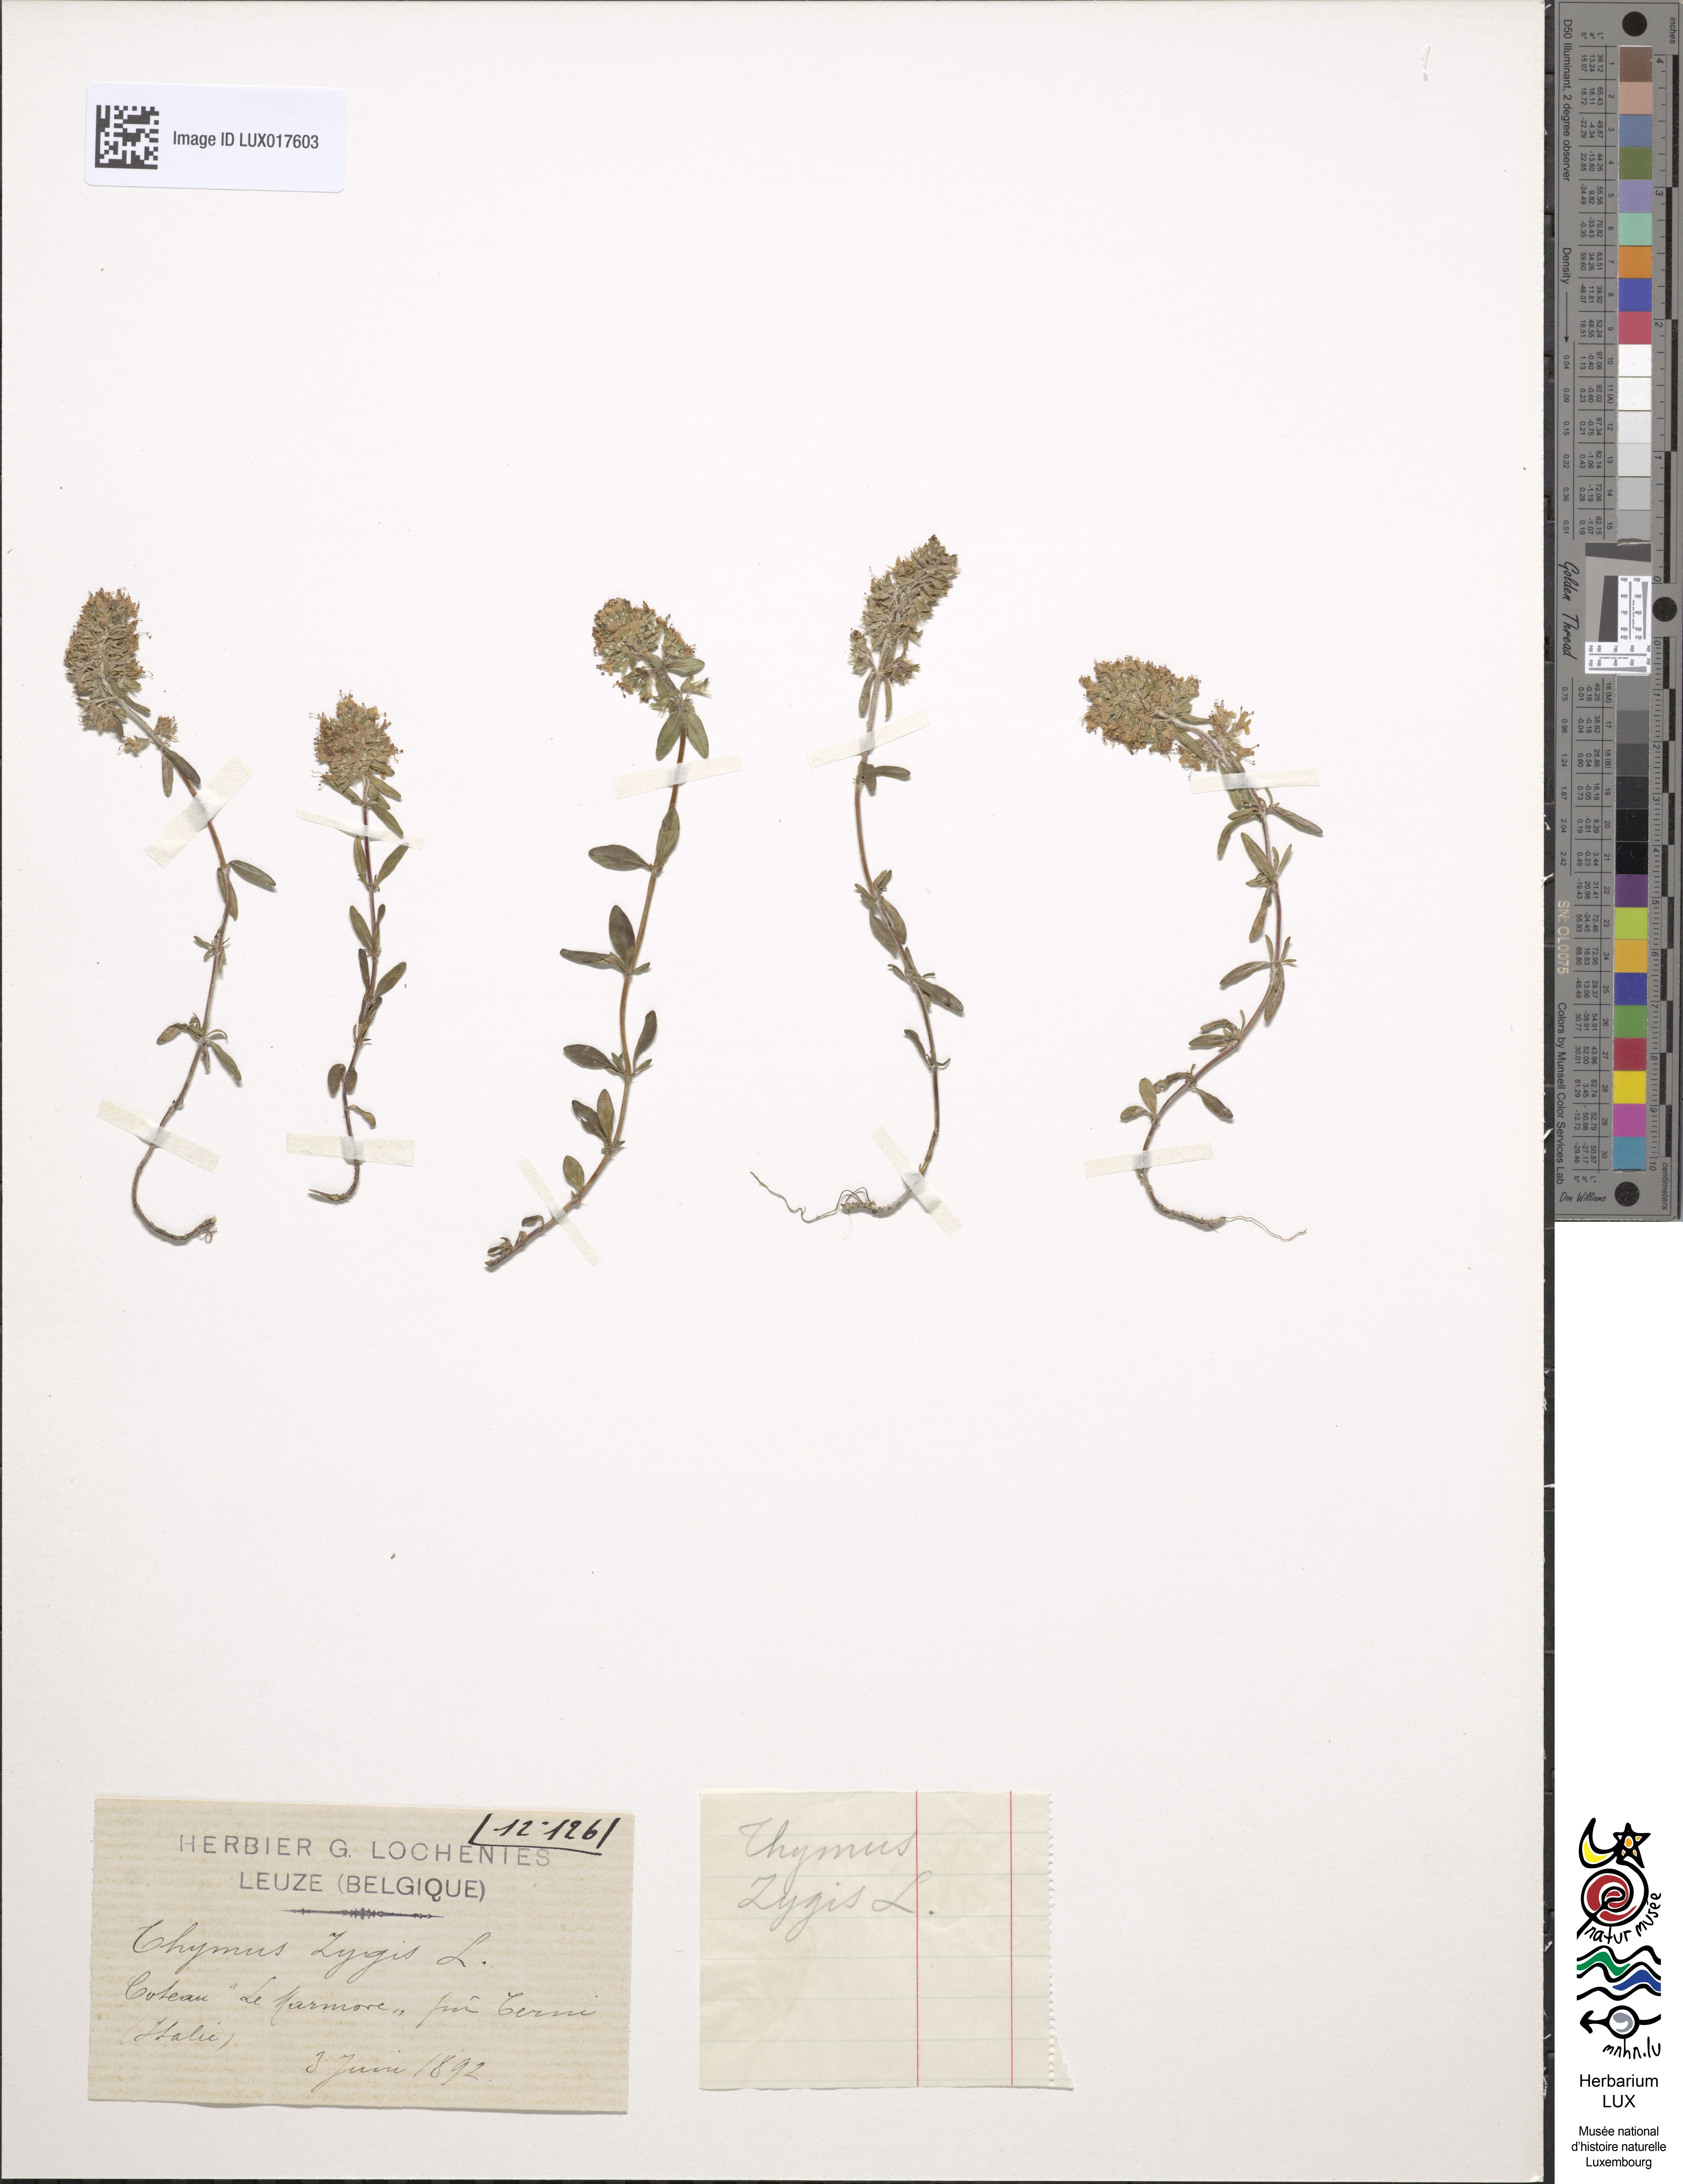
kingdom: Plantae
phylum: Tracheophyta
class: Magnoliopsida
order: Lamiales
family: Lamiaceae
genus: Thymus
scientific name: Thymus zygis
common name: White thyme
